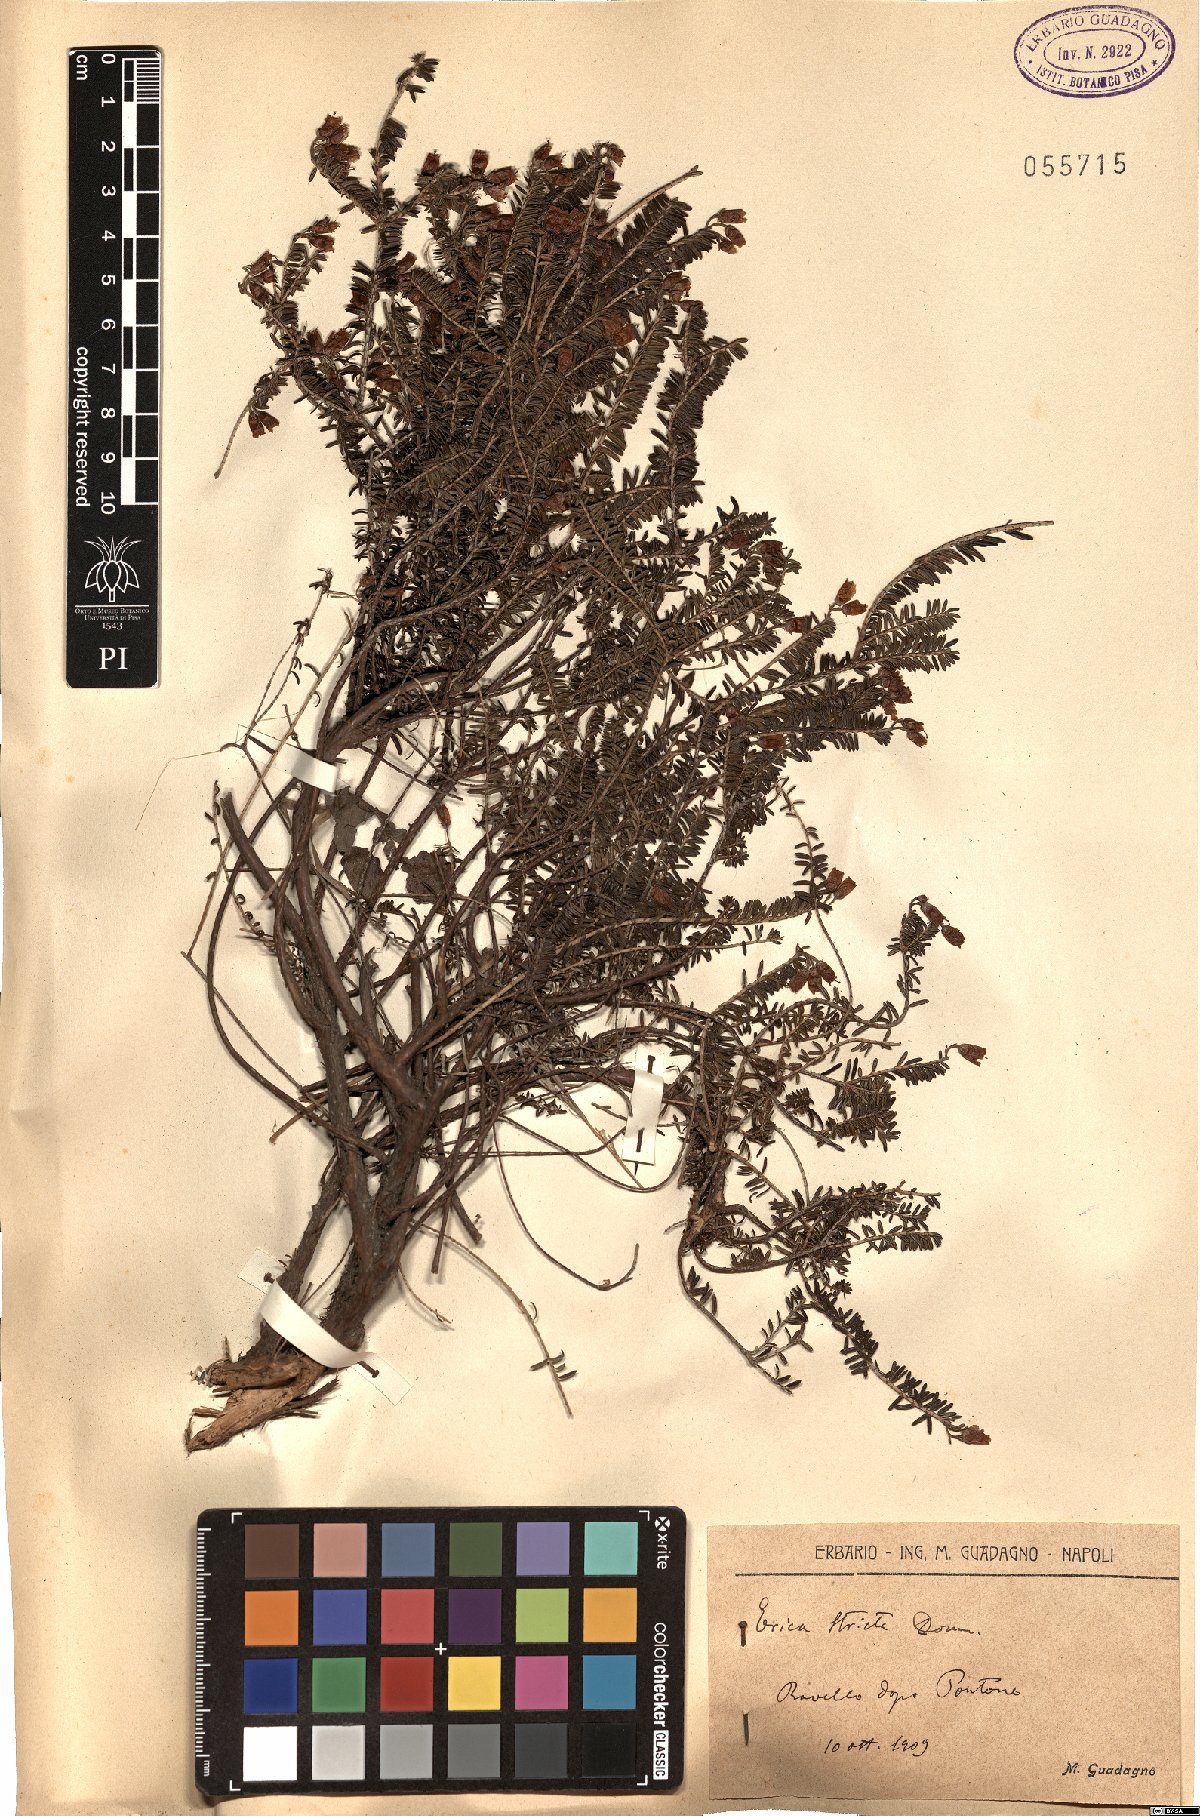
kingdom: Plantae
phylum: Tracheophyta
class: Magnoliopsida
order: Ericales
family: Ericaceae
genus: Erica
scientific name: Erica terminalis
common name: Corsican heath
